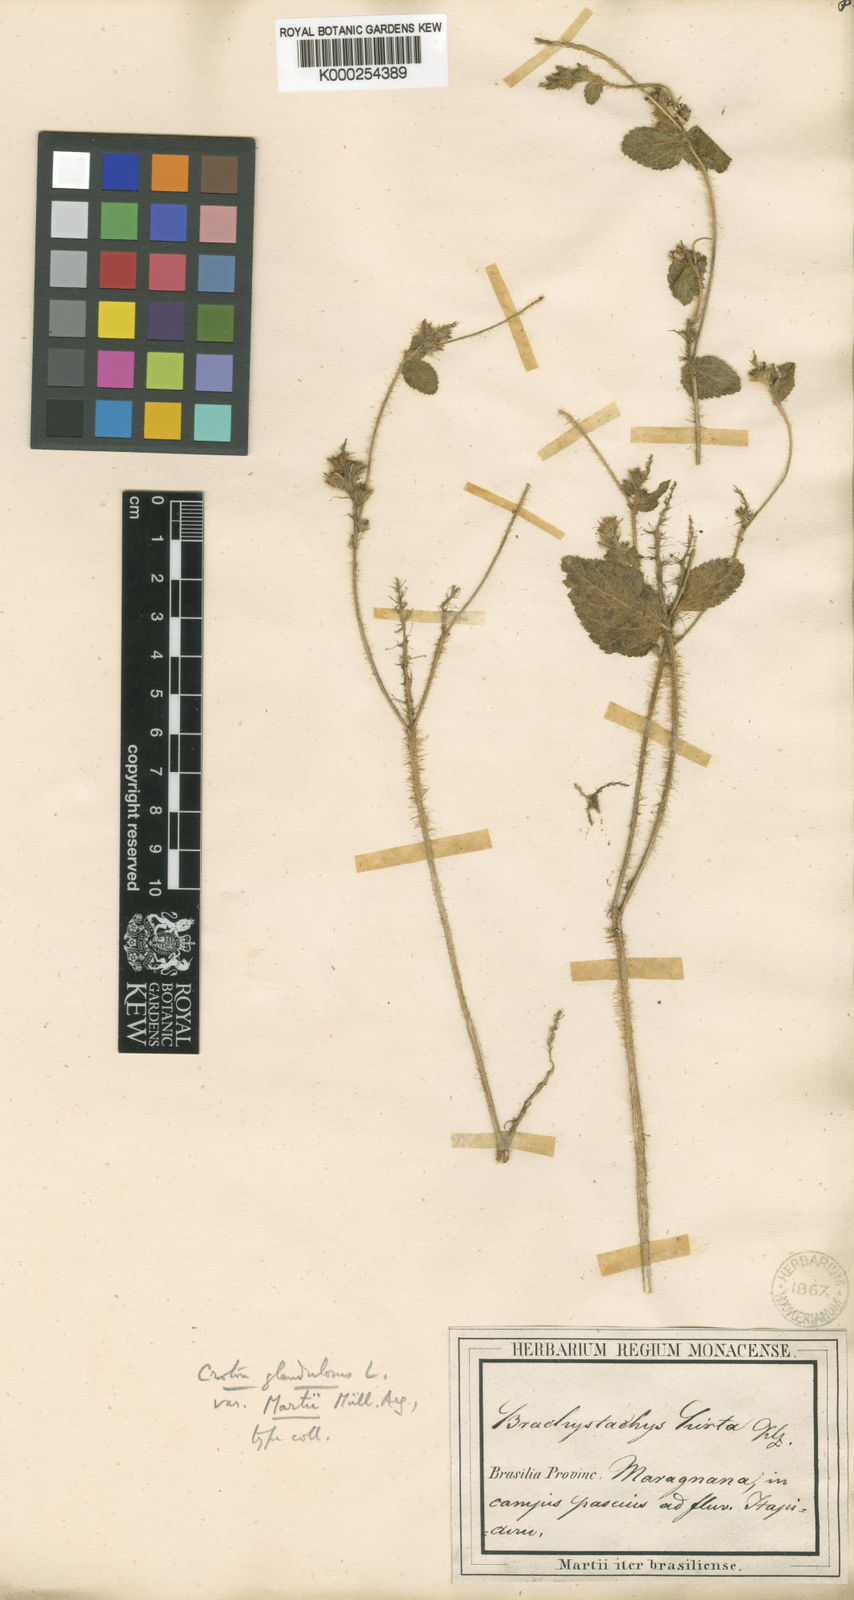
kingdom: Plantae
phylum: Tracheophyta
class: Magnoliopsida
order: Malpighiales
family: Euphorbiaceae
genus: Croton
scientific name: Croton glandulosus
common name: Tropic croton
